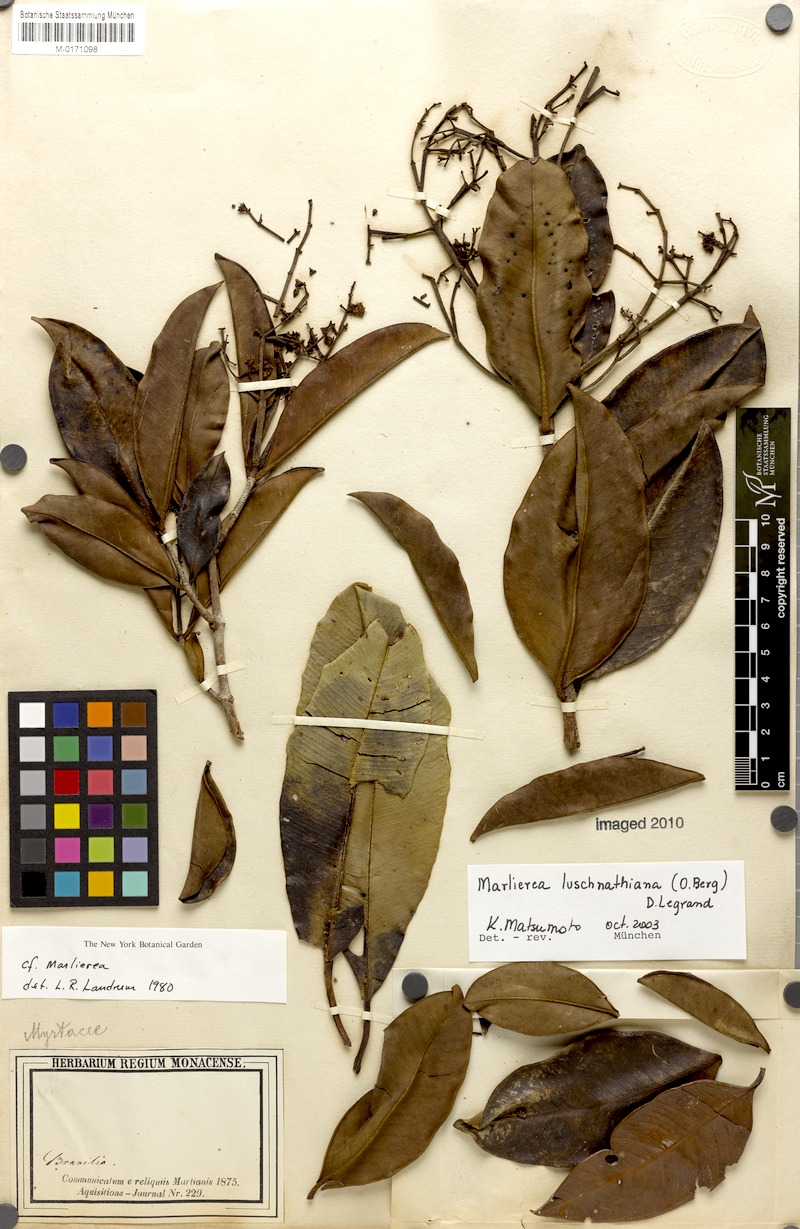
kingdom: Plantae
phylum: Tracheophyta
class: Magnoliopsida
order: Myrtales
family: Myrtaceae
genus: Myrcia
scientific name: Myrcia maculata
